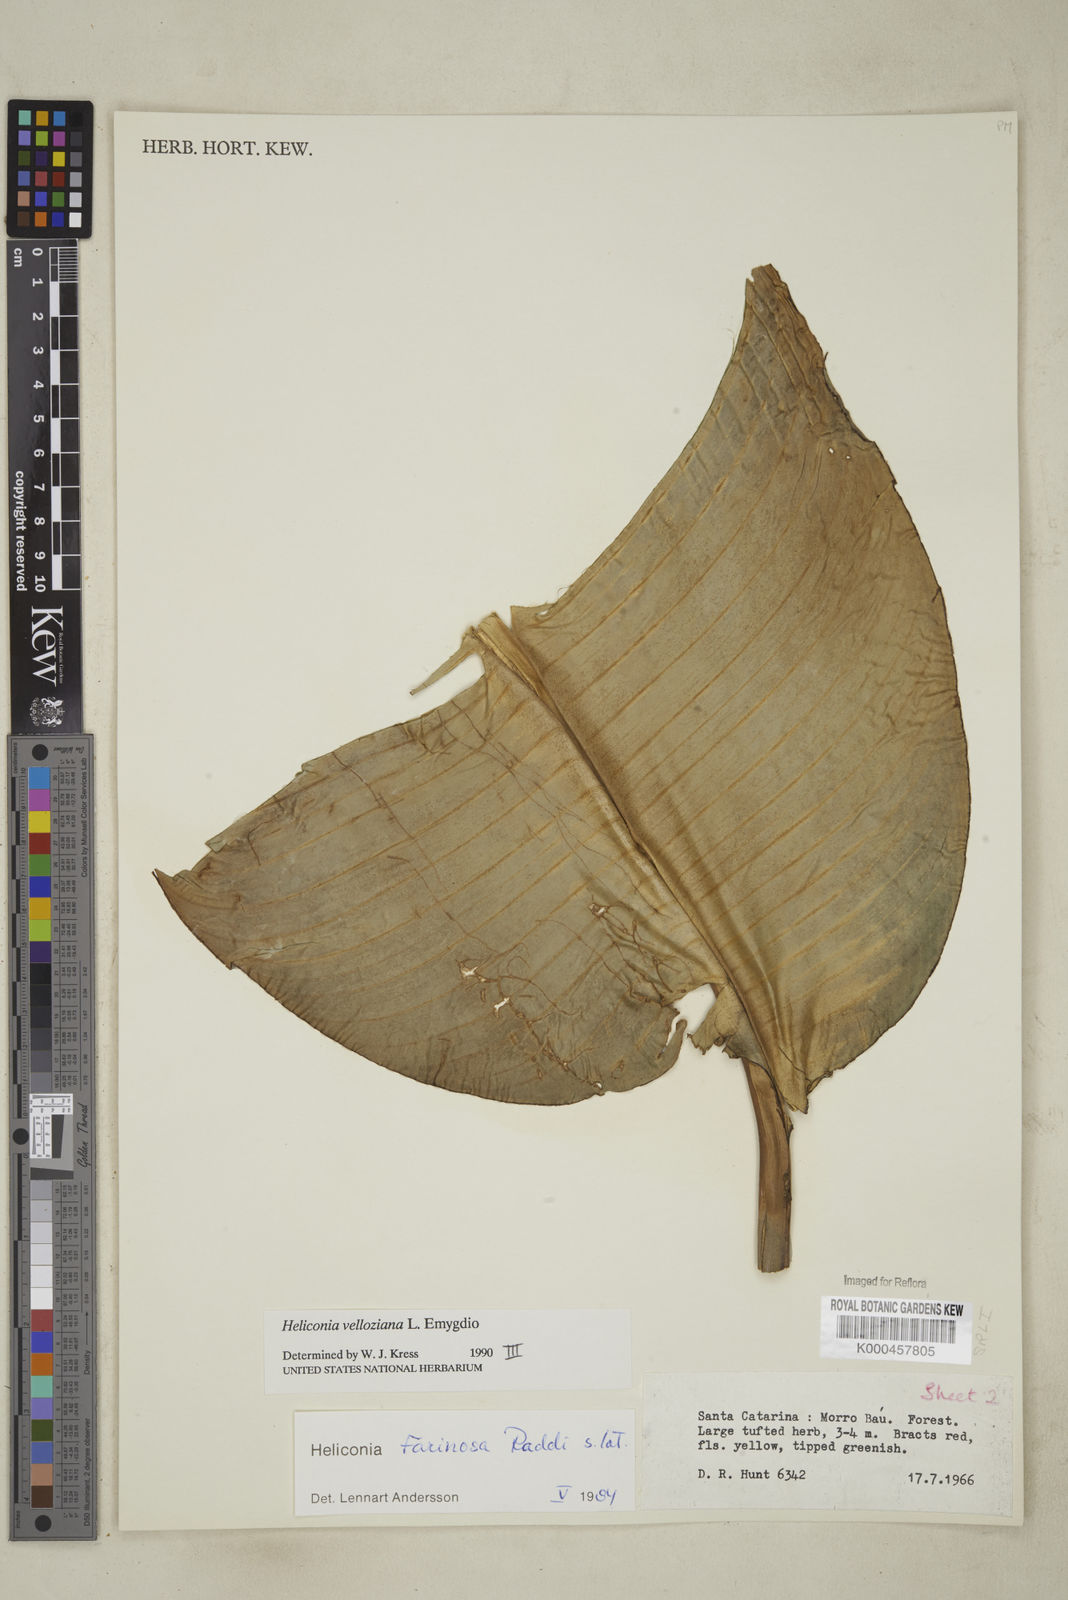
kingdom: Plantae
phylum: Tracheophyta
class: Liliopsida
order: Zingiberales
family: Heliconiaceae
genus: Heliconia
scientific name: Heliconia farinosa
